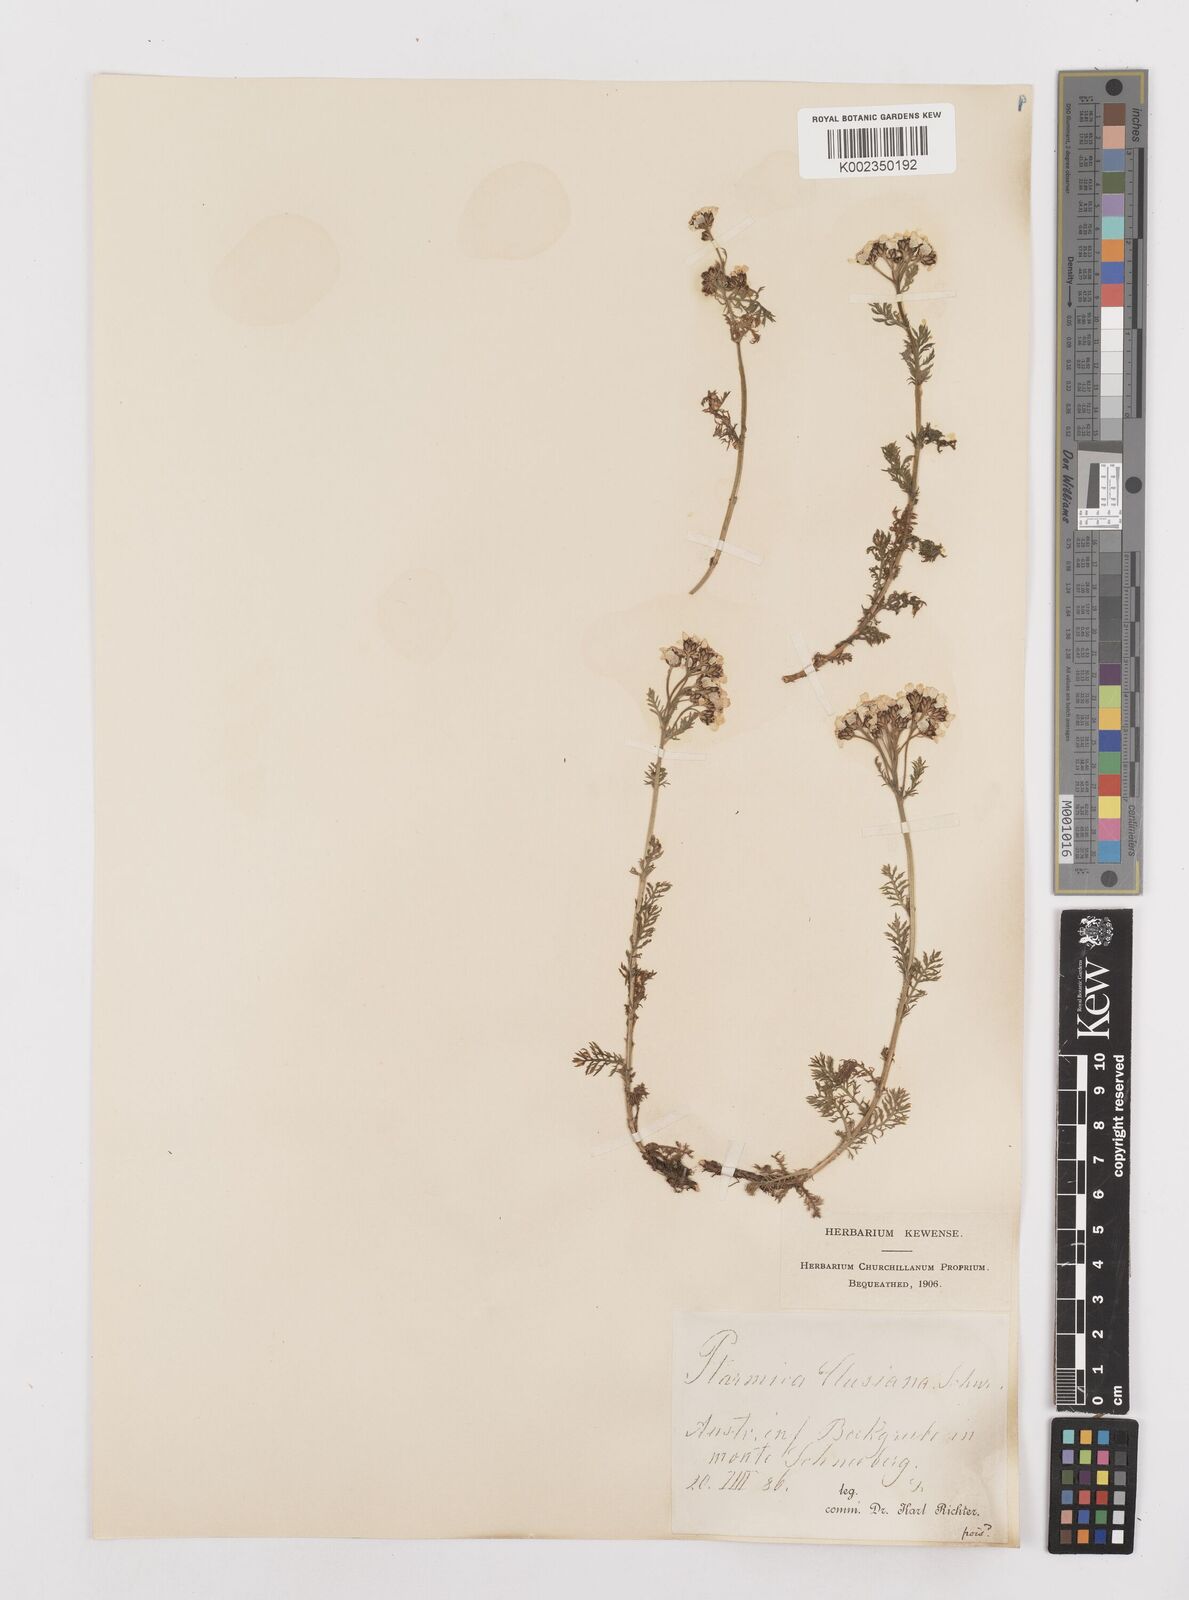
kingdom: Plantae
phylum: Tracheophyta
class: Magnoliopsida
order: Asterales
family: Asteraceae
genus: Achillea
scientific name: Achillea clusiana
